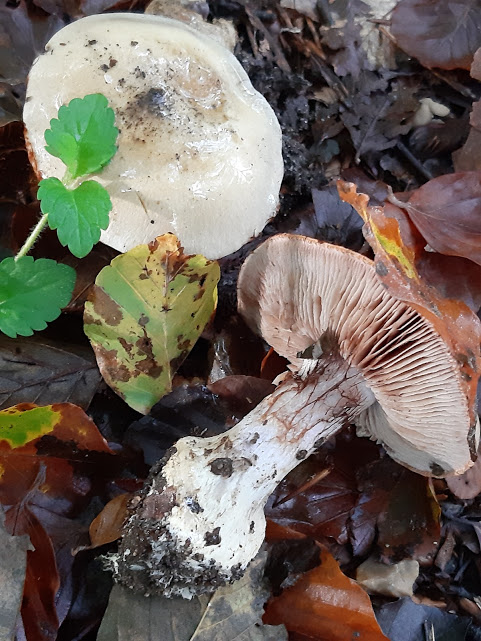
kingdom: Fungi
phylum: Basidiomycota
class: Agaricomycetes
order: Agaricales
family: Cortinariaceae
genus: Cortinarius
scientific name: Cortinarius anserinus
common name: bøge-slørhat
